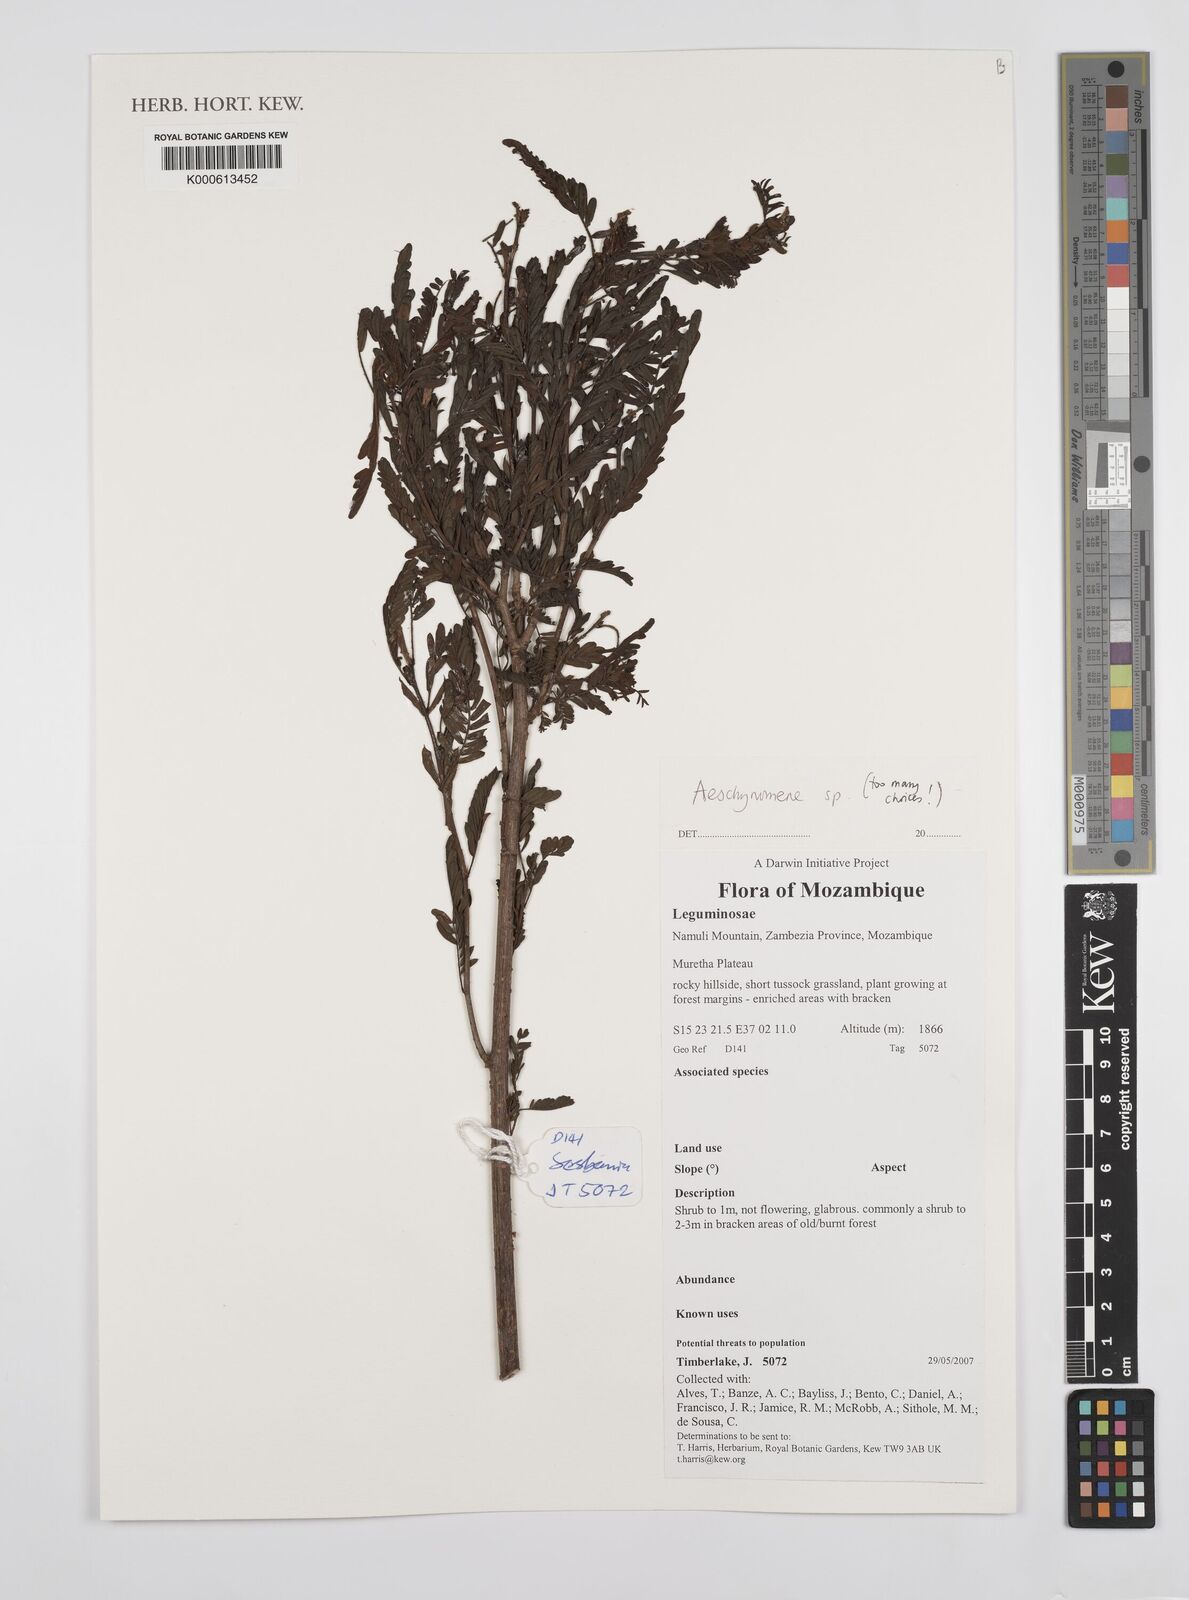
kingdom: Plantae
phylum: Tracheophyta
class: Magnoliopsida
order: Fabales
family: Fabaceae
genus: Aeschynomene
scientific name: Aeschynomene
